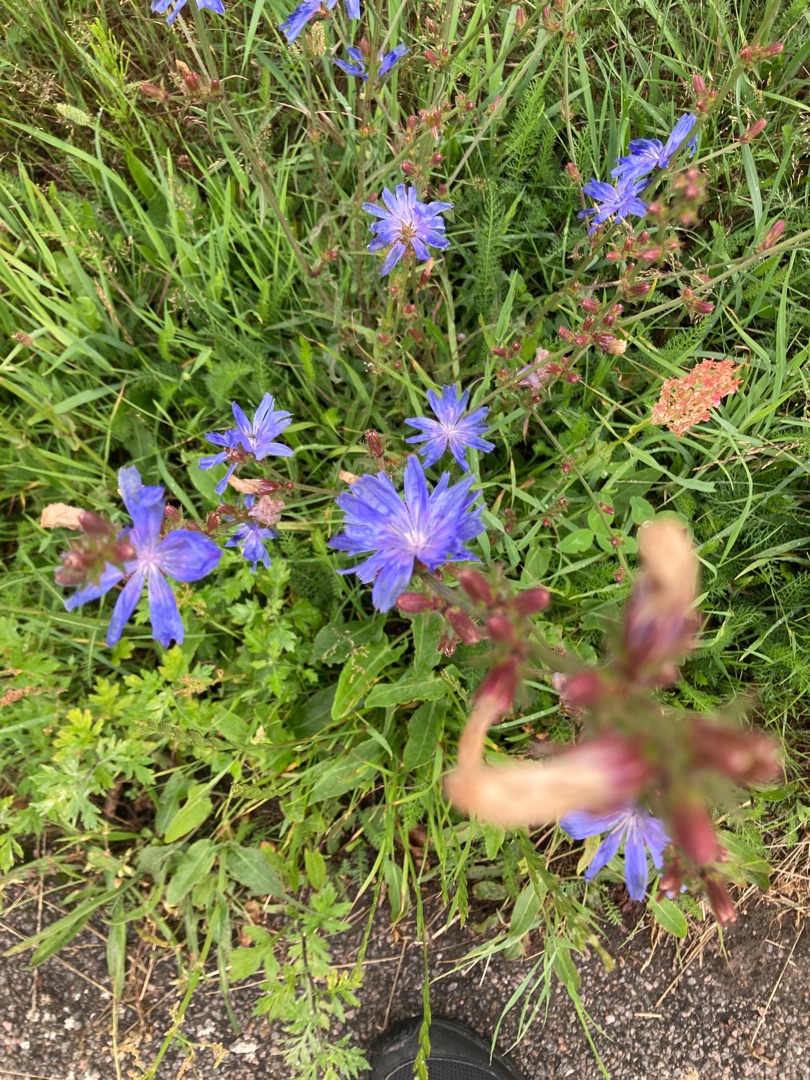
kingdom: Plantae
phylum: Tracheophyta
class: Magnoliopsida
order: Asterales
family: Asteraceae
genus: Cichorium
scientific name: Cichorium intybus
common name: Cikorie
